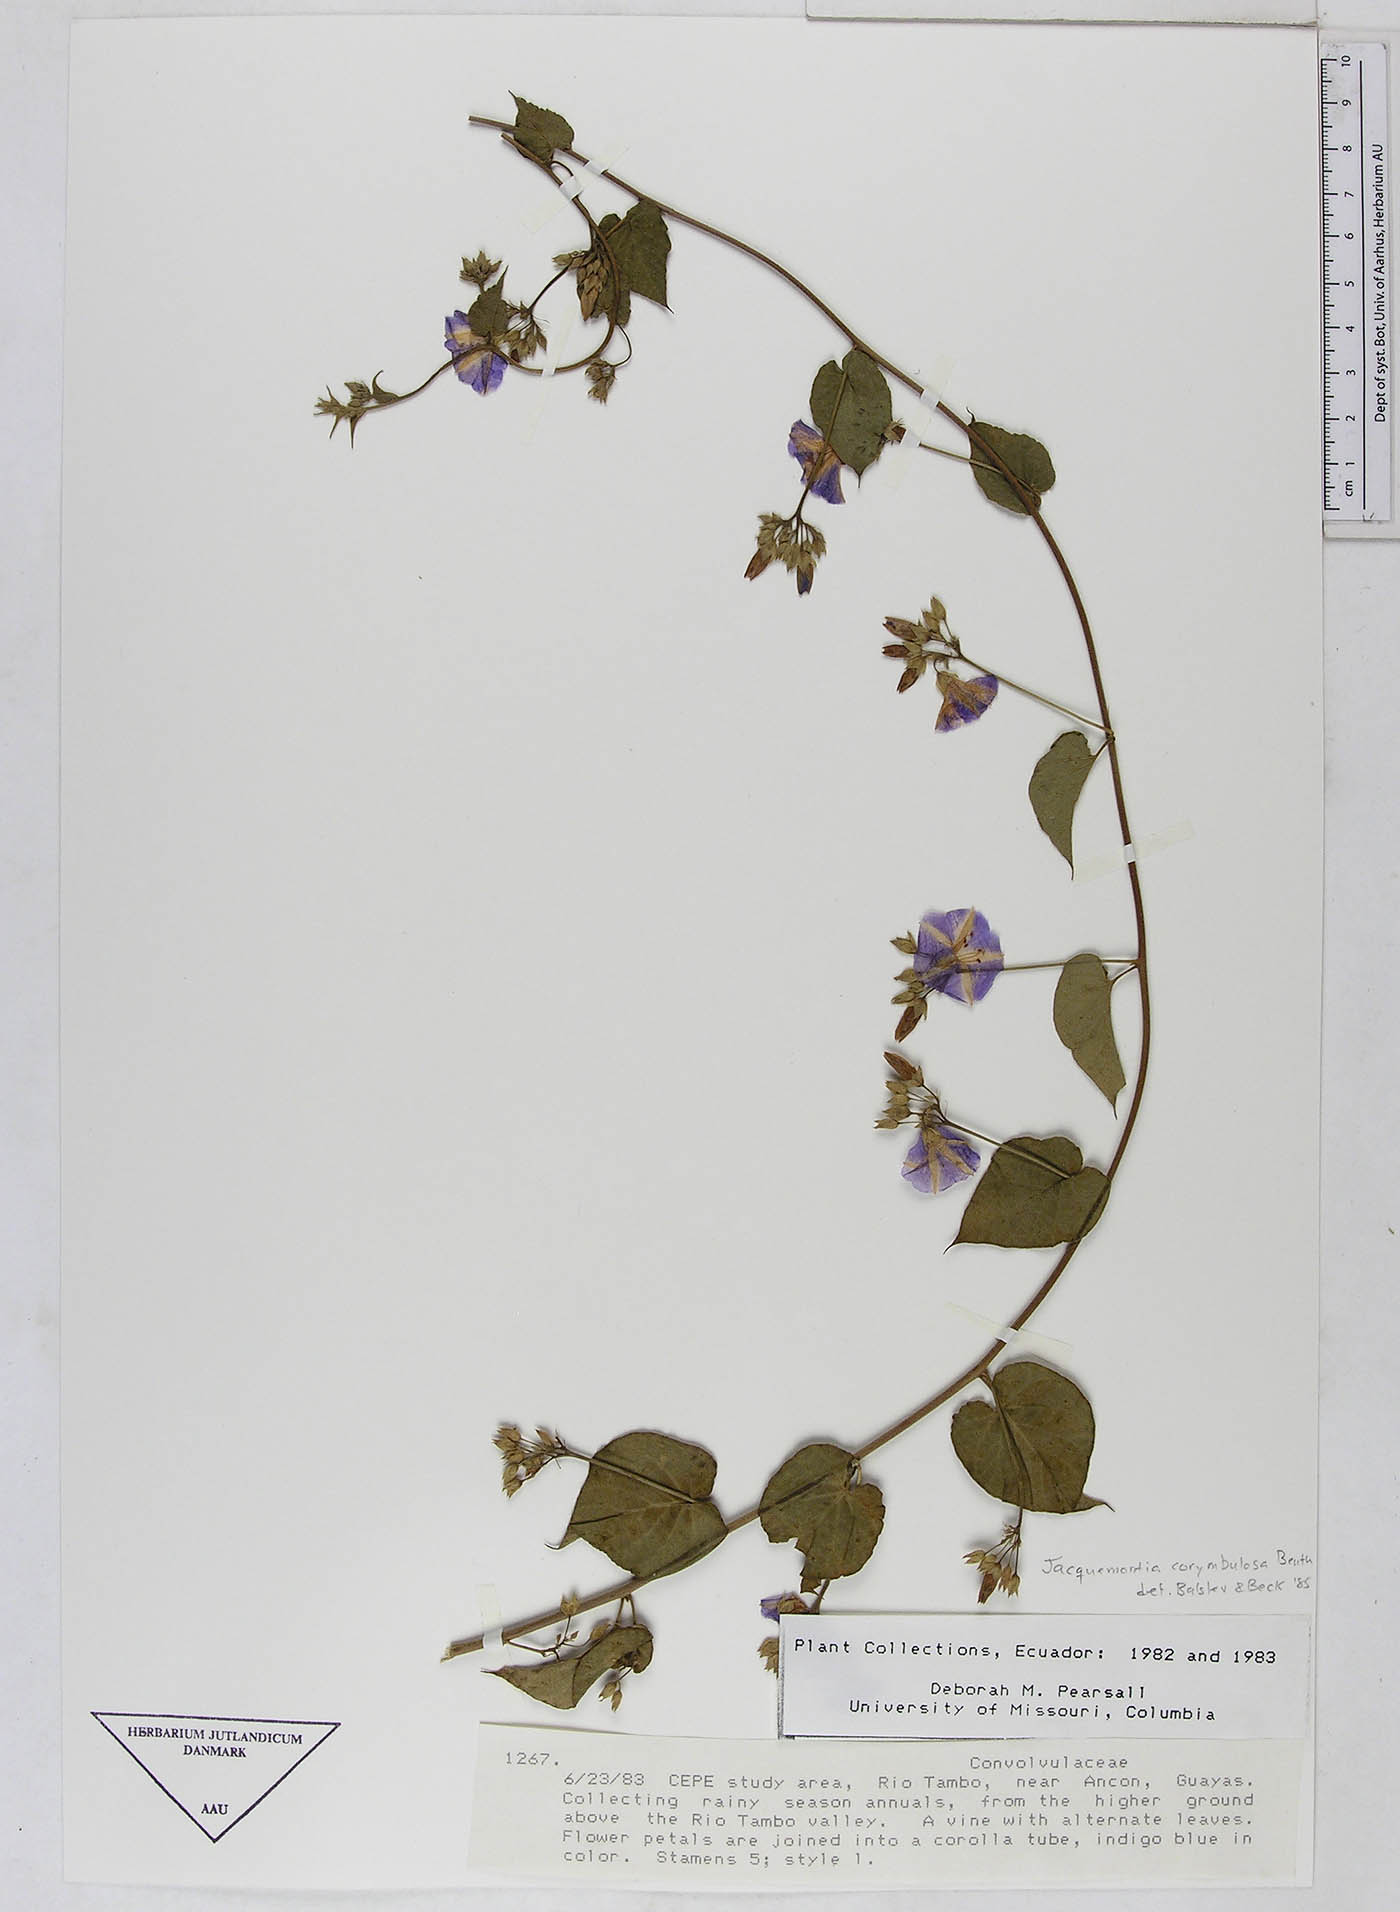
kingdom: Plantae
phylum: Tracheophyta
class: Magnoliopsida
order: Solanales
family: Convolvulaceae
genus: Jacquemontia
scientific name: Jacquemontia corymbulosa
